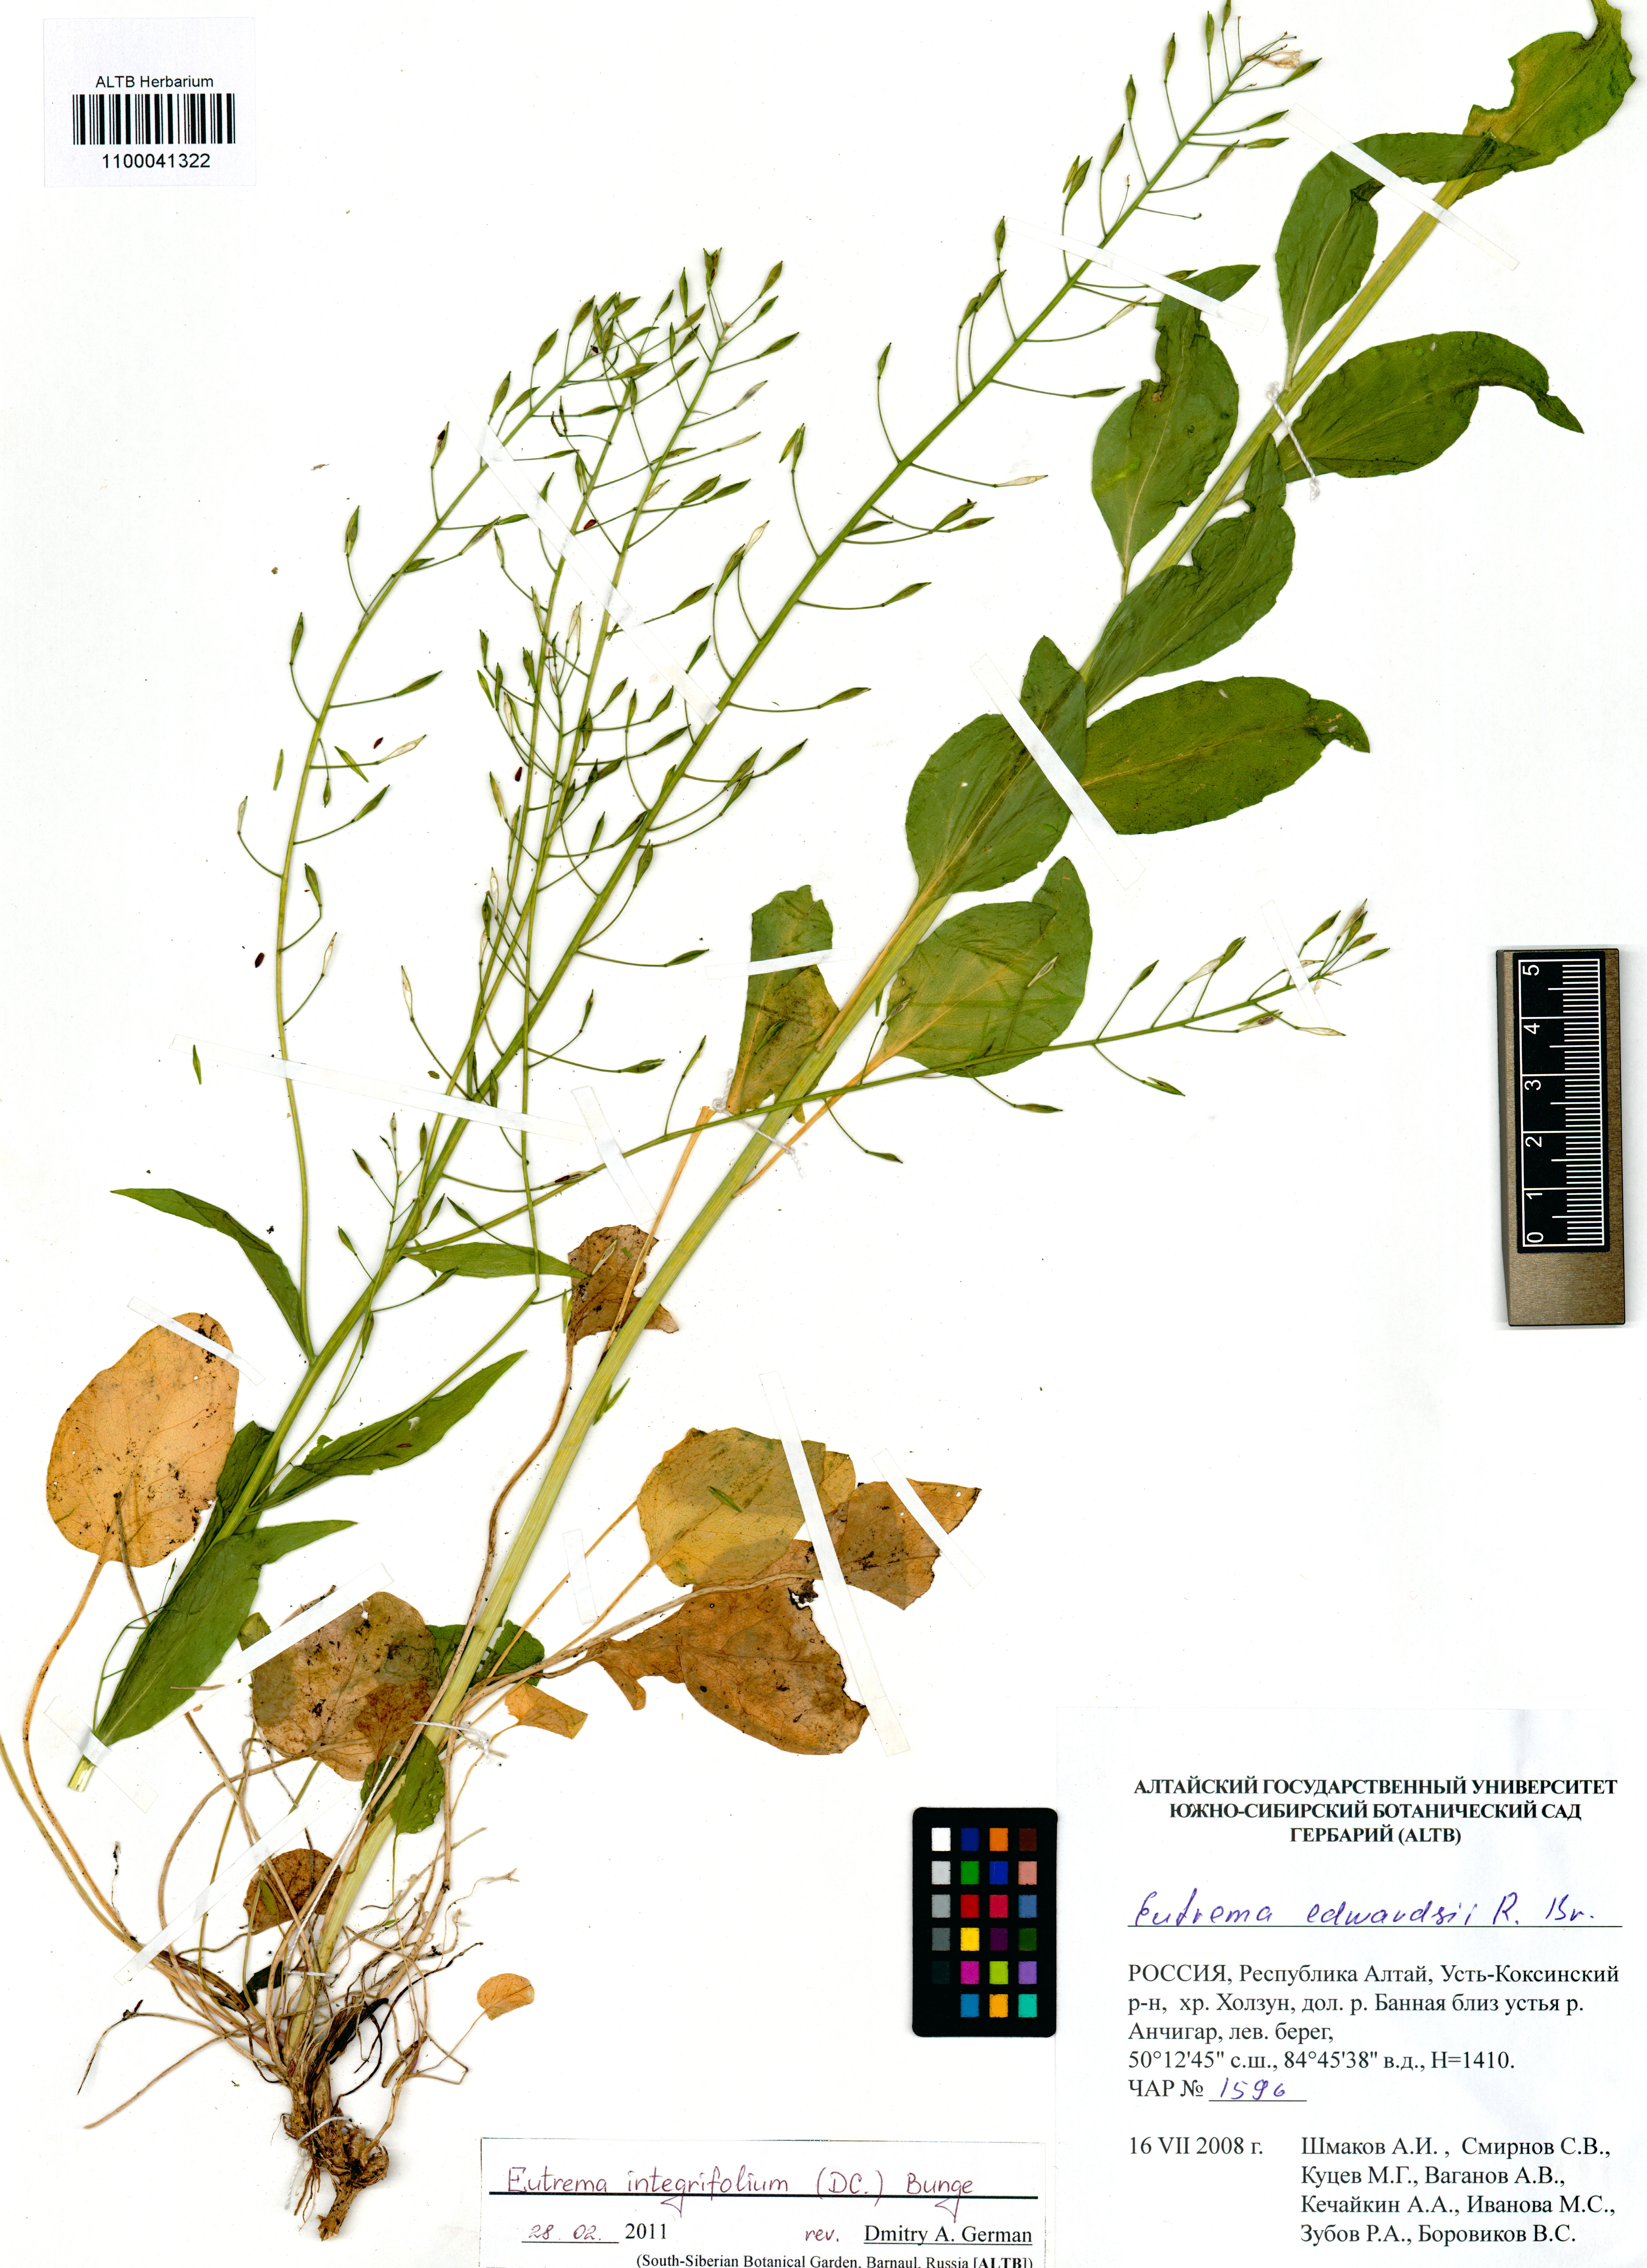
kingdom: Plantae
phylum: Tracheophyta
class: Magnoliopsida
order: Brassicales
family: Brassicaceae
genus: Eutrema
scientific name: Eutrema integrifolium
